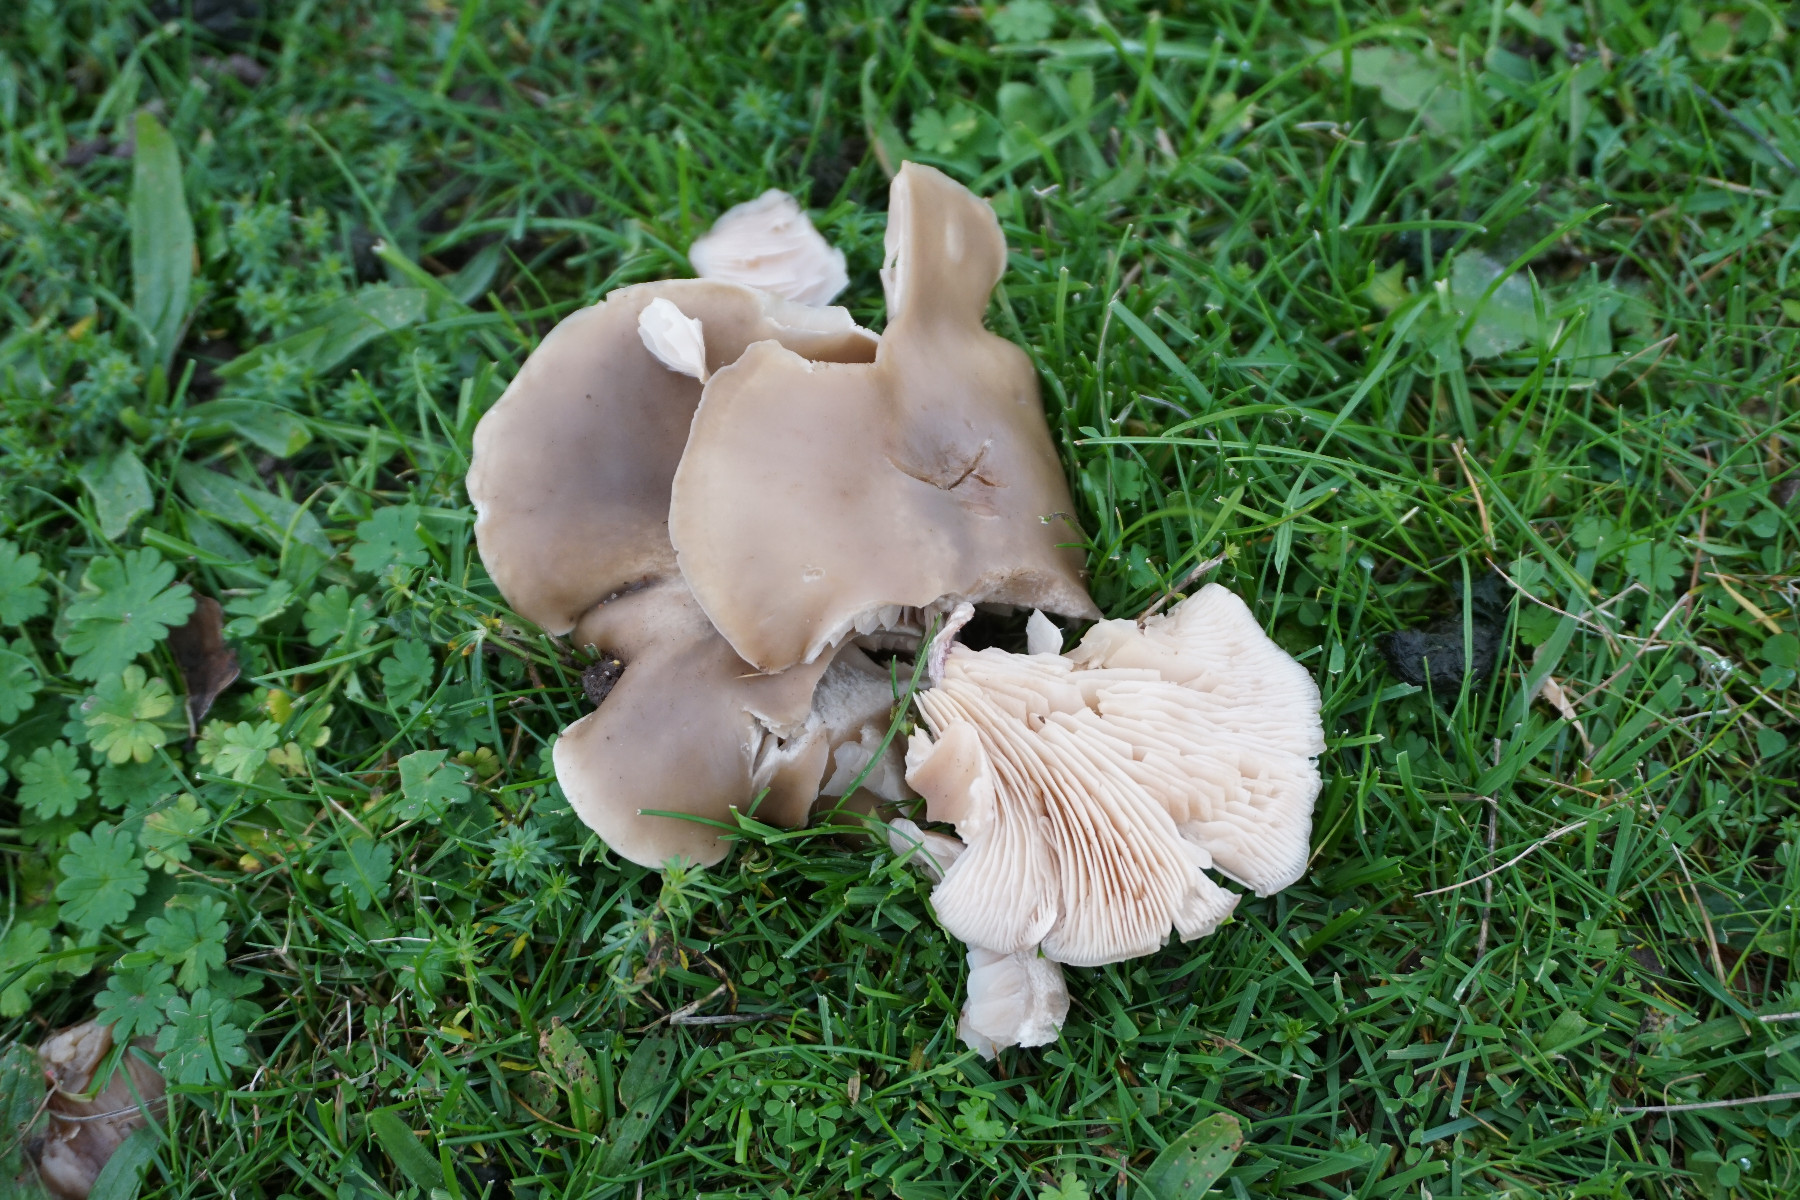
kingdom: Fungi
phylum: Basidiomycota
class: Agaricomycetes
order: Agaricales
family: Tricholomataceae
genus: Lepista
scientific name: Lepista personata
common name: bleg hekseringshat
